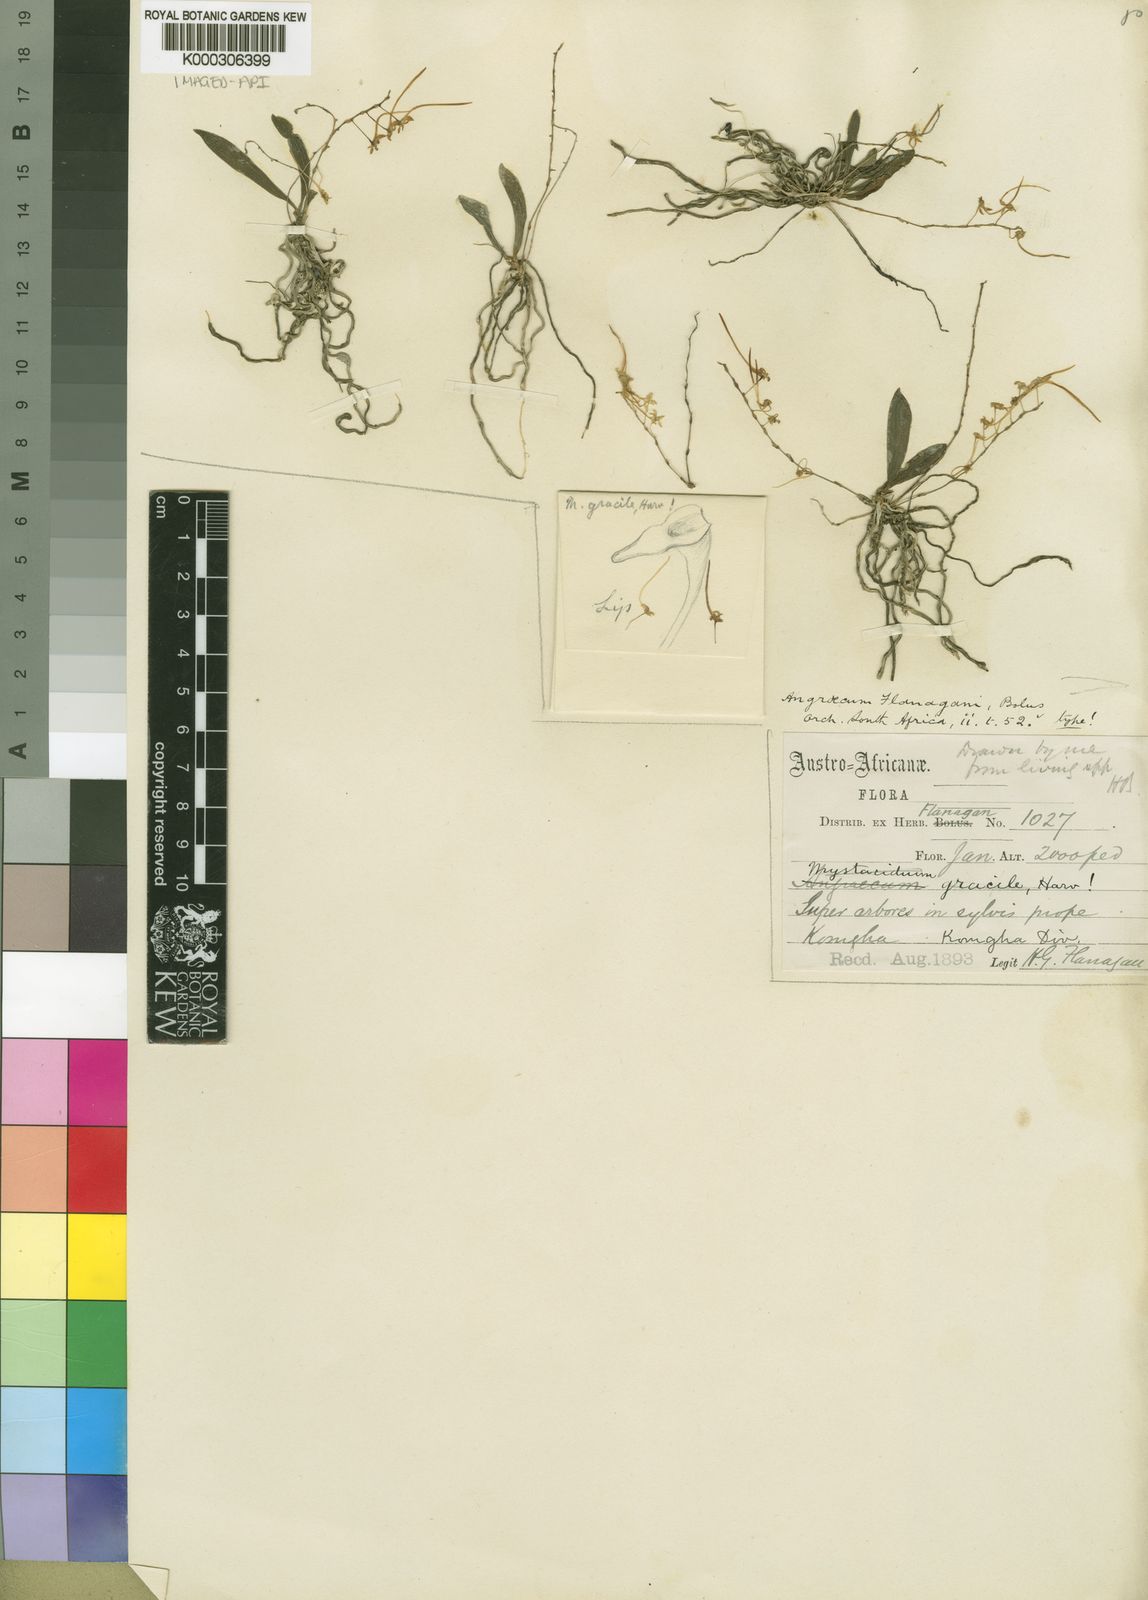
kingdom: Plantae
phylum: Tracheophyta
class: Liliopsida
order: Asparagales
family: Orchidaceae
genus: Mystacidium
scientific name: Mystacidium flanaganii
